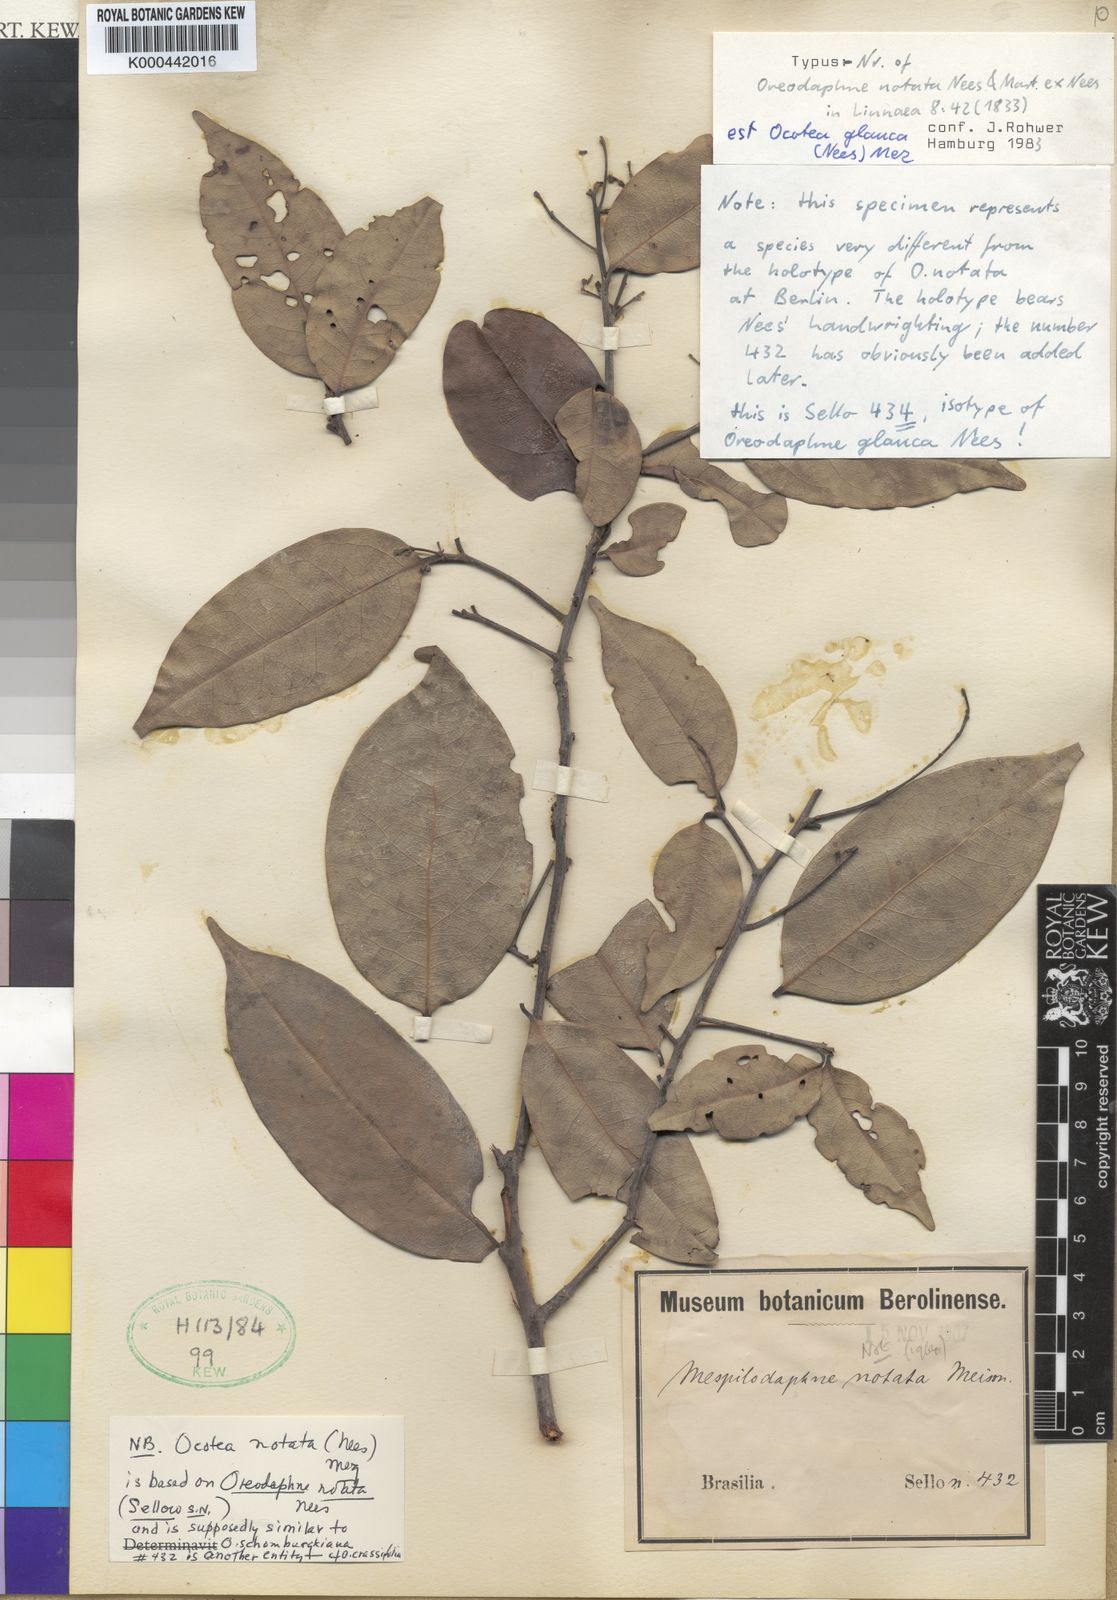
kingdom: Plantae
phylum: Tracheophyta
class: Magnoliopsida
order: Laurales
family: Lauraceae
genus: Mespilodaphne
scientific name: Mespilodaphne glauca
